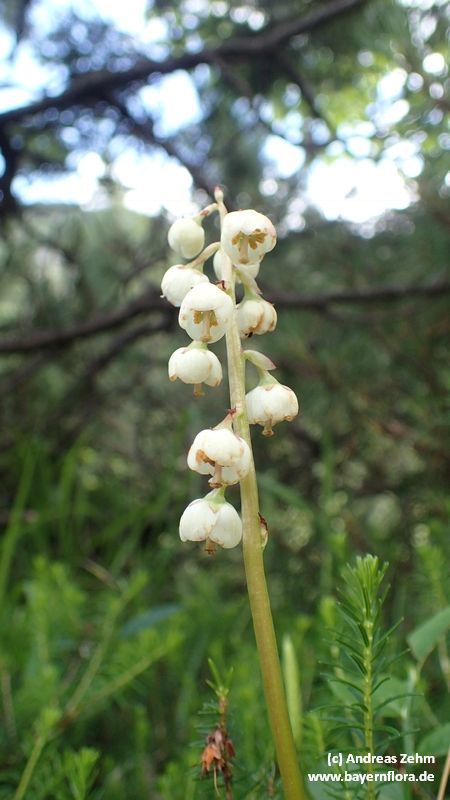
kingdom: Plantae
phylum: Tracheophyta
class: Magnoliopsida
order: Ericales
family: Ericaceae
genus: Pyrola
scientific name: Pyrola media
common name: Intermediate wintergreen
